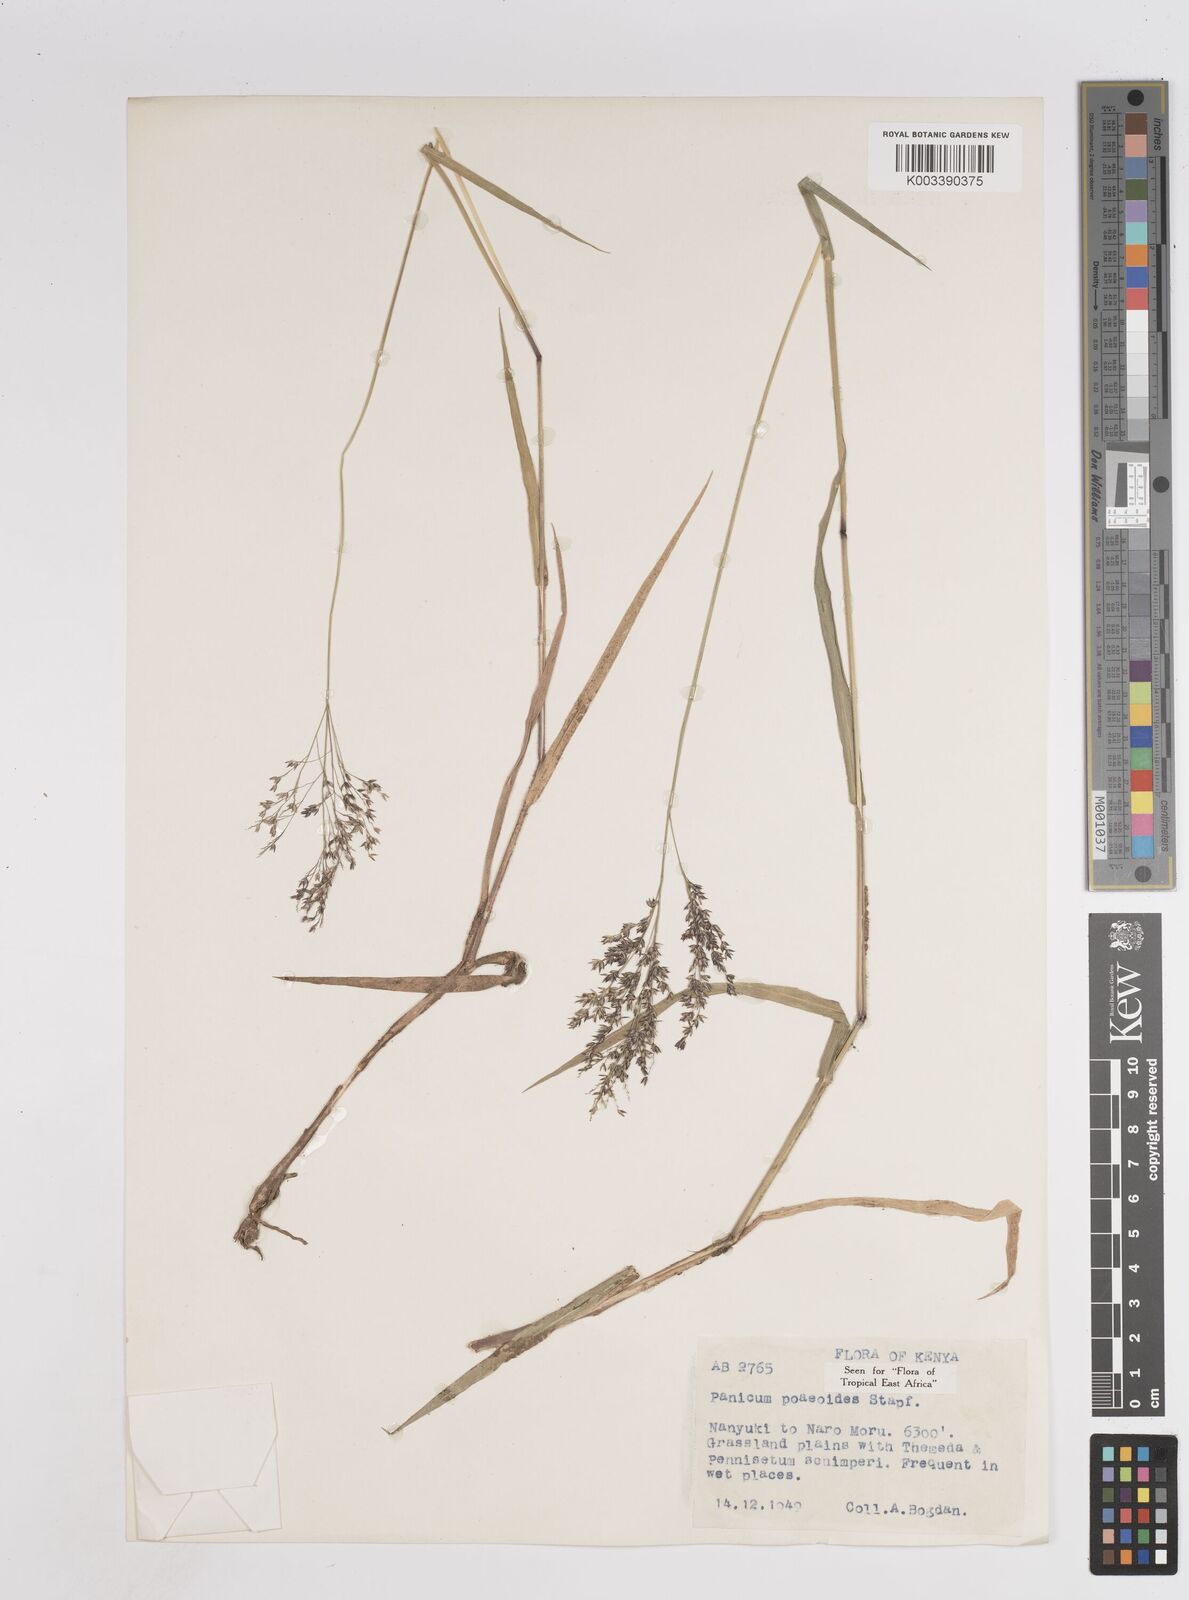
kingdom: Plantae
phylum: Tracheophyta
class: Liliopsida
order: Poales
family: Poaceae
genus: Panicum
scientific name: Panicum
